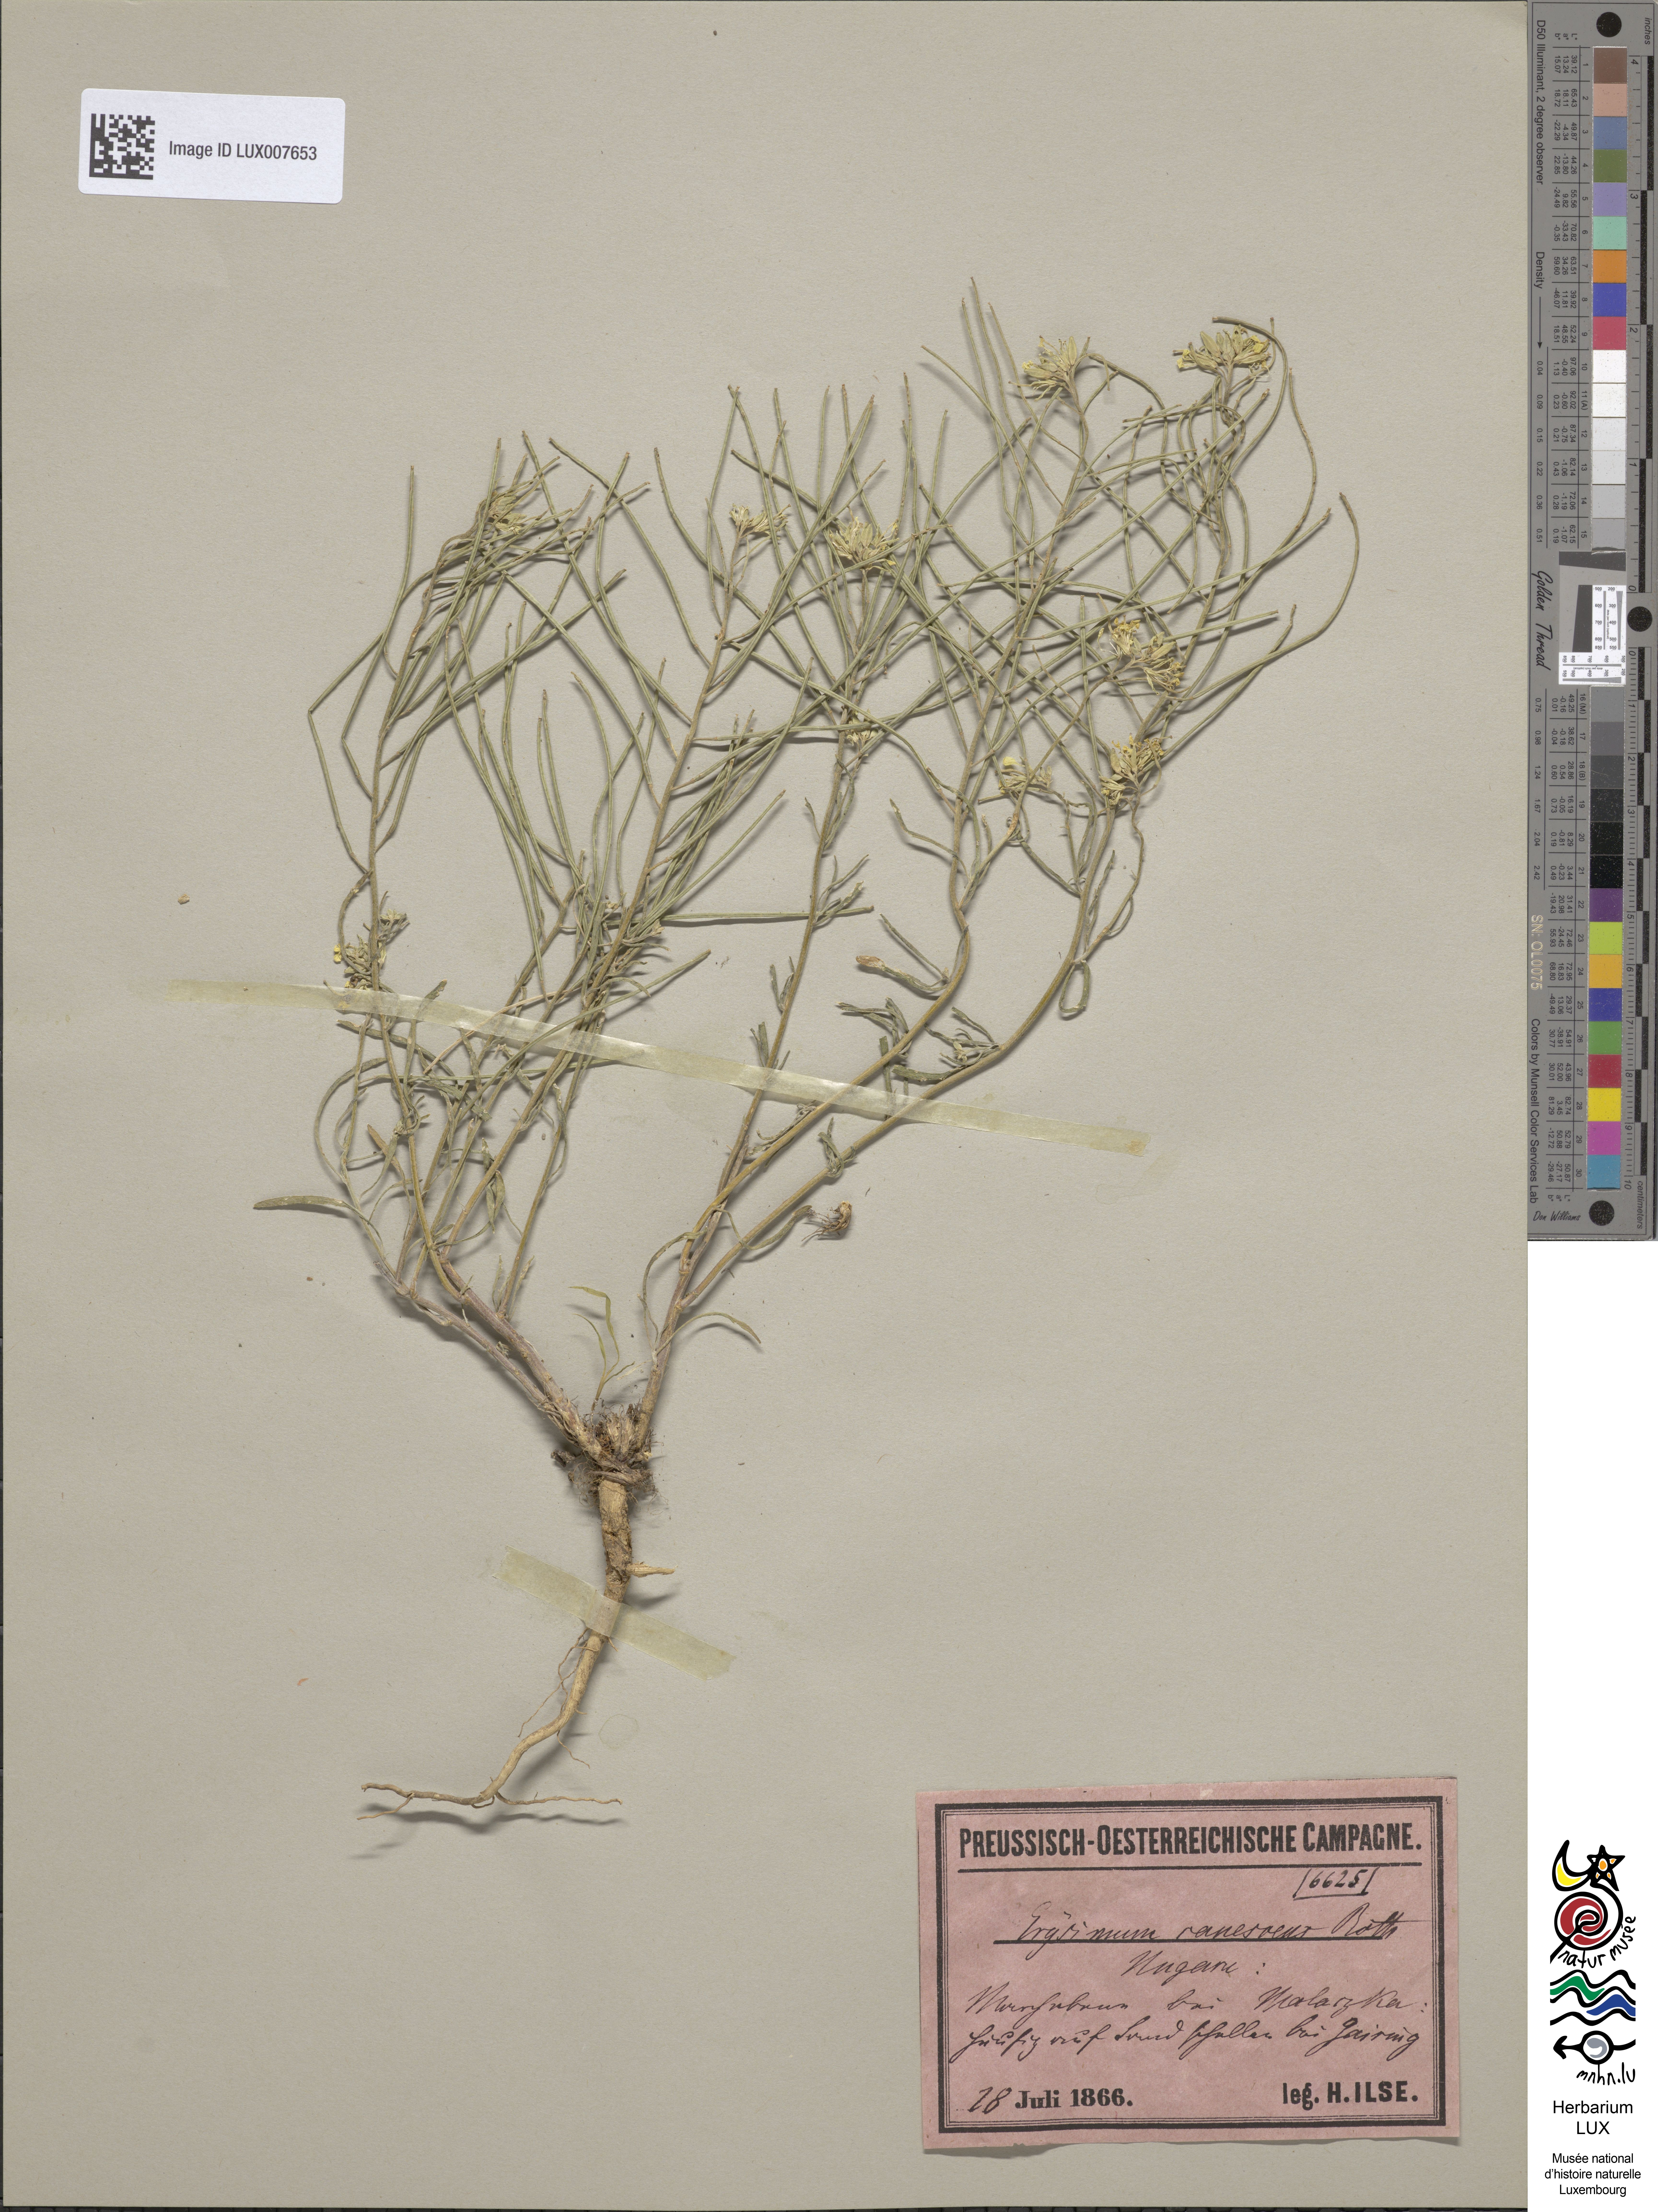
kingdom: Plantae
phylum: Tracheophyta
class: Magnoliopsida
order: Brassicales
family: Brassicaceae
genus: Erysimum
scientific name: Erysimum diffusum
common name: Diffuse wallflower
